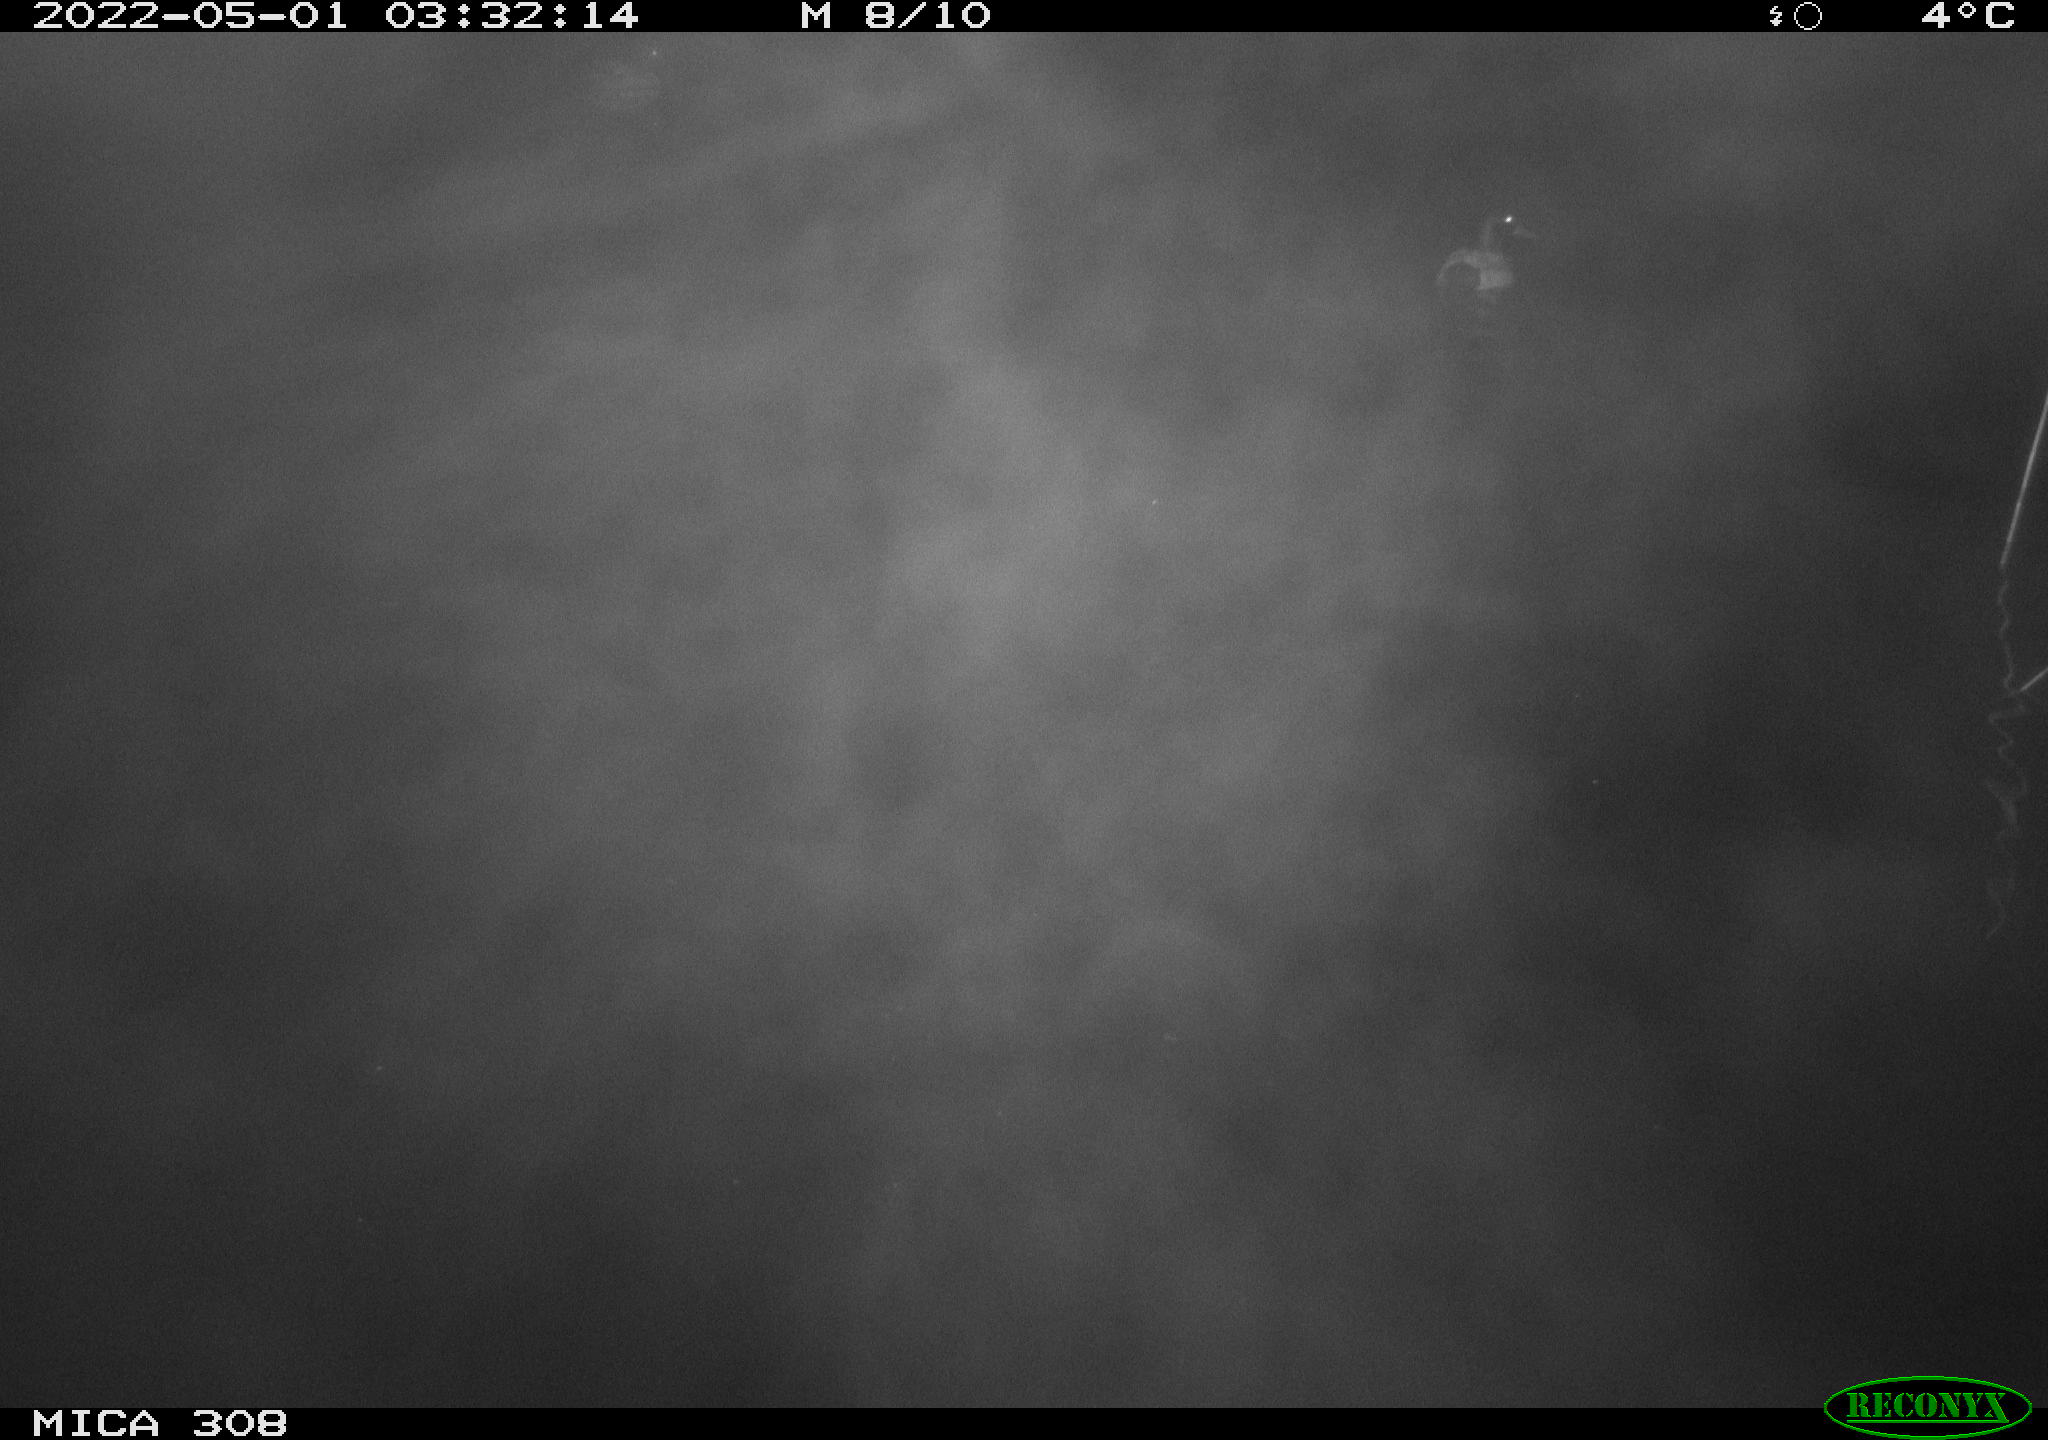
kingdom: Animalia
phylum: Chordata
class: Aves
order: Anseriformes
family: Anatidae
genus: Anas
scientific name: Anas platyrhynchos
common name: Mallard
